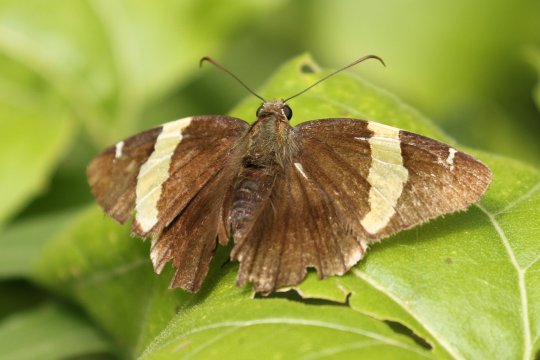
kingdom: Animalia
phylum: Arthropoda
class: Insecta
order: Lepidoptera
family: Hesperiidae
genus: Autochton
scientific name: Autochton cellus
